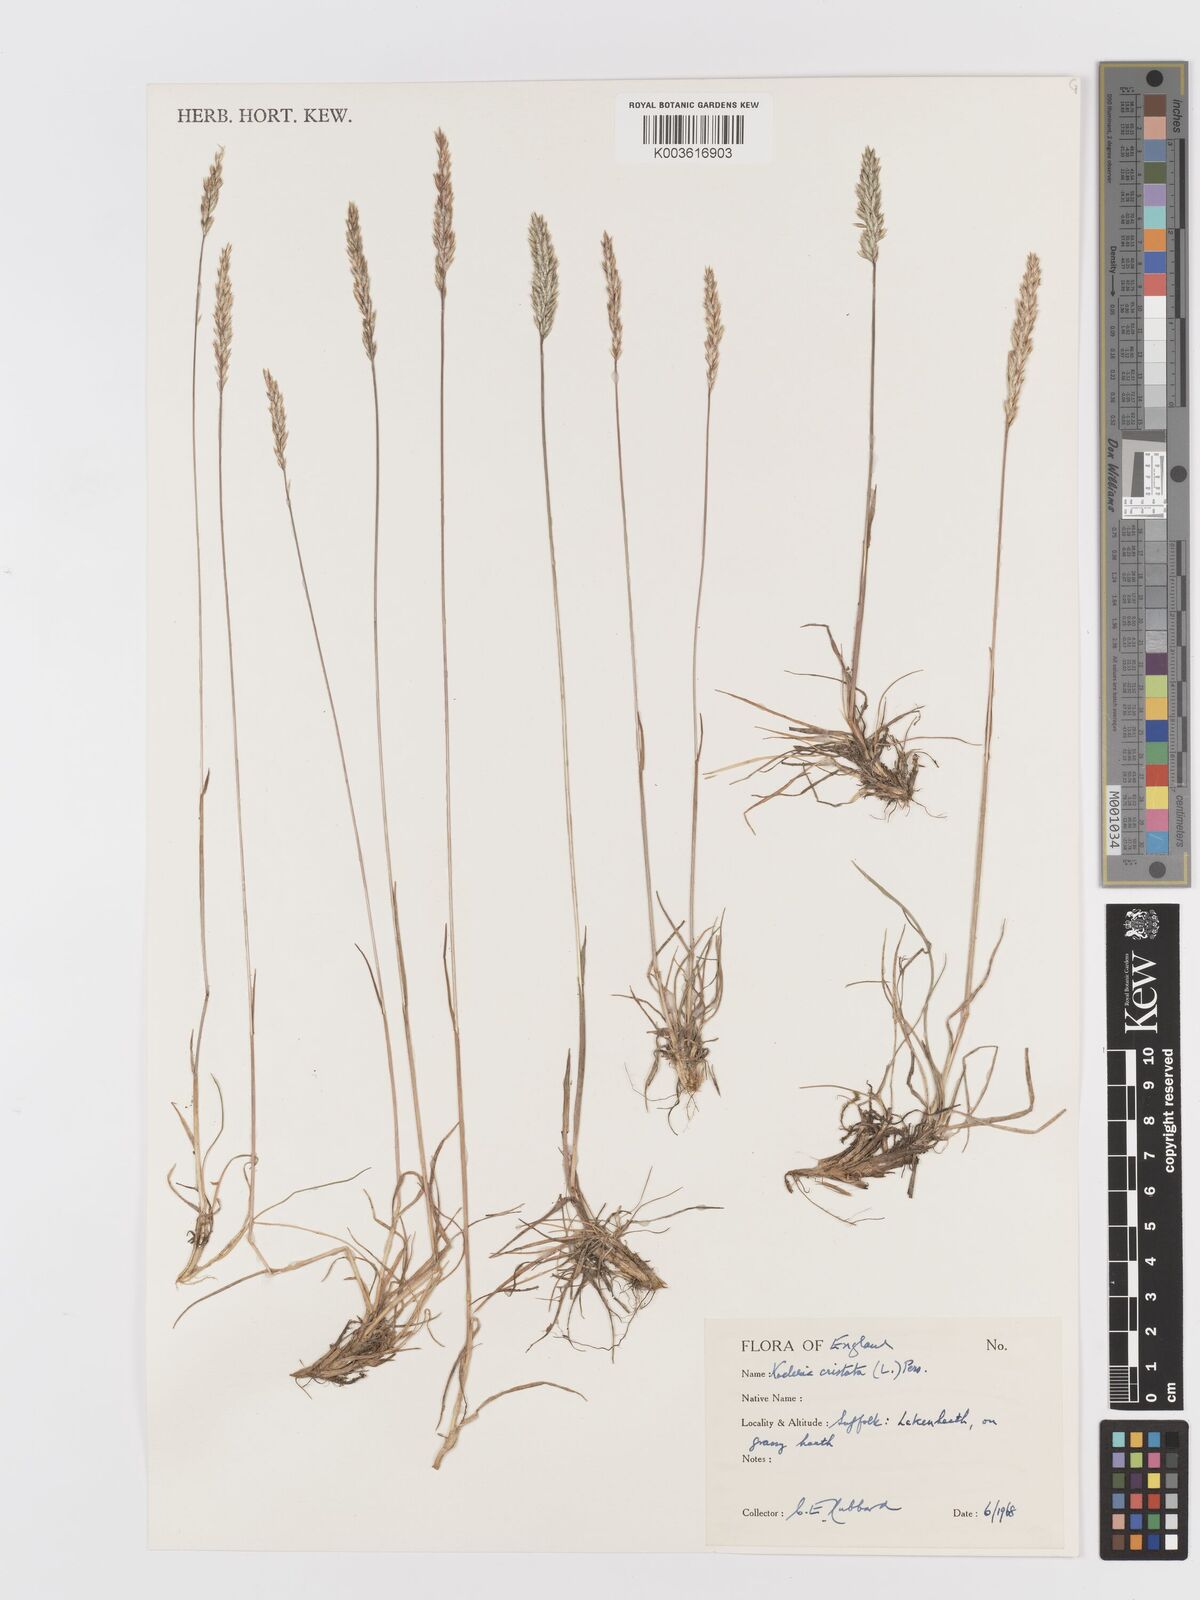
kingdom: Plantae
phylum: Tracheophyta
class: Liliopsida
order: Poales
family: Poaceae
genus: Koeleria
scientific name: Koeleria macrantha
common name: Crested hair-grass
